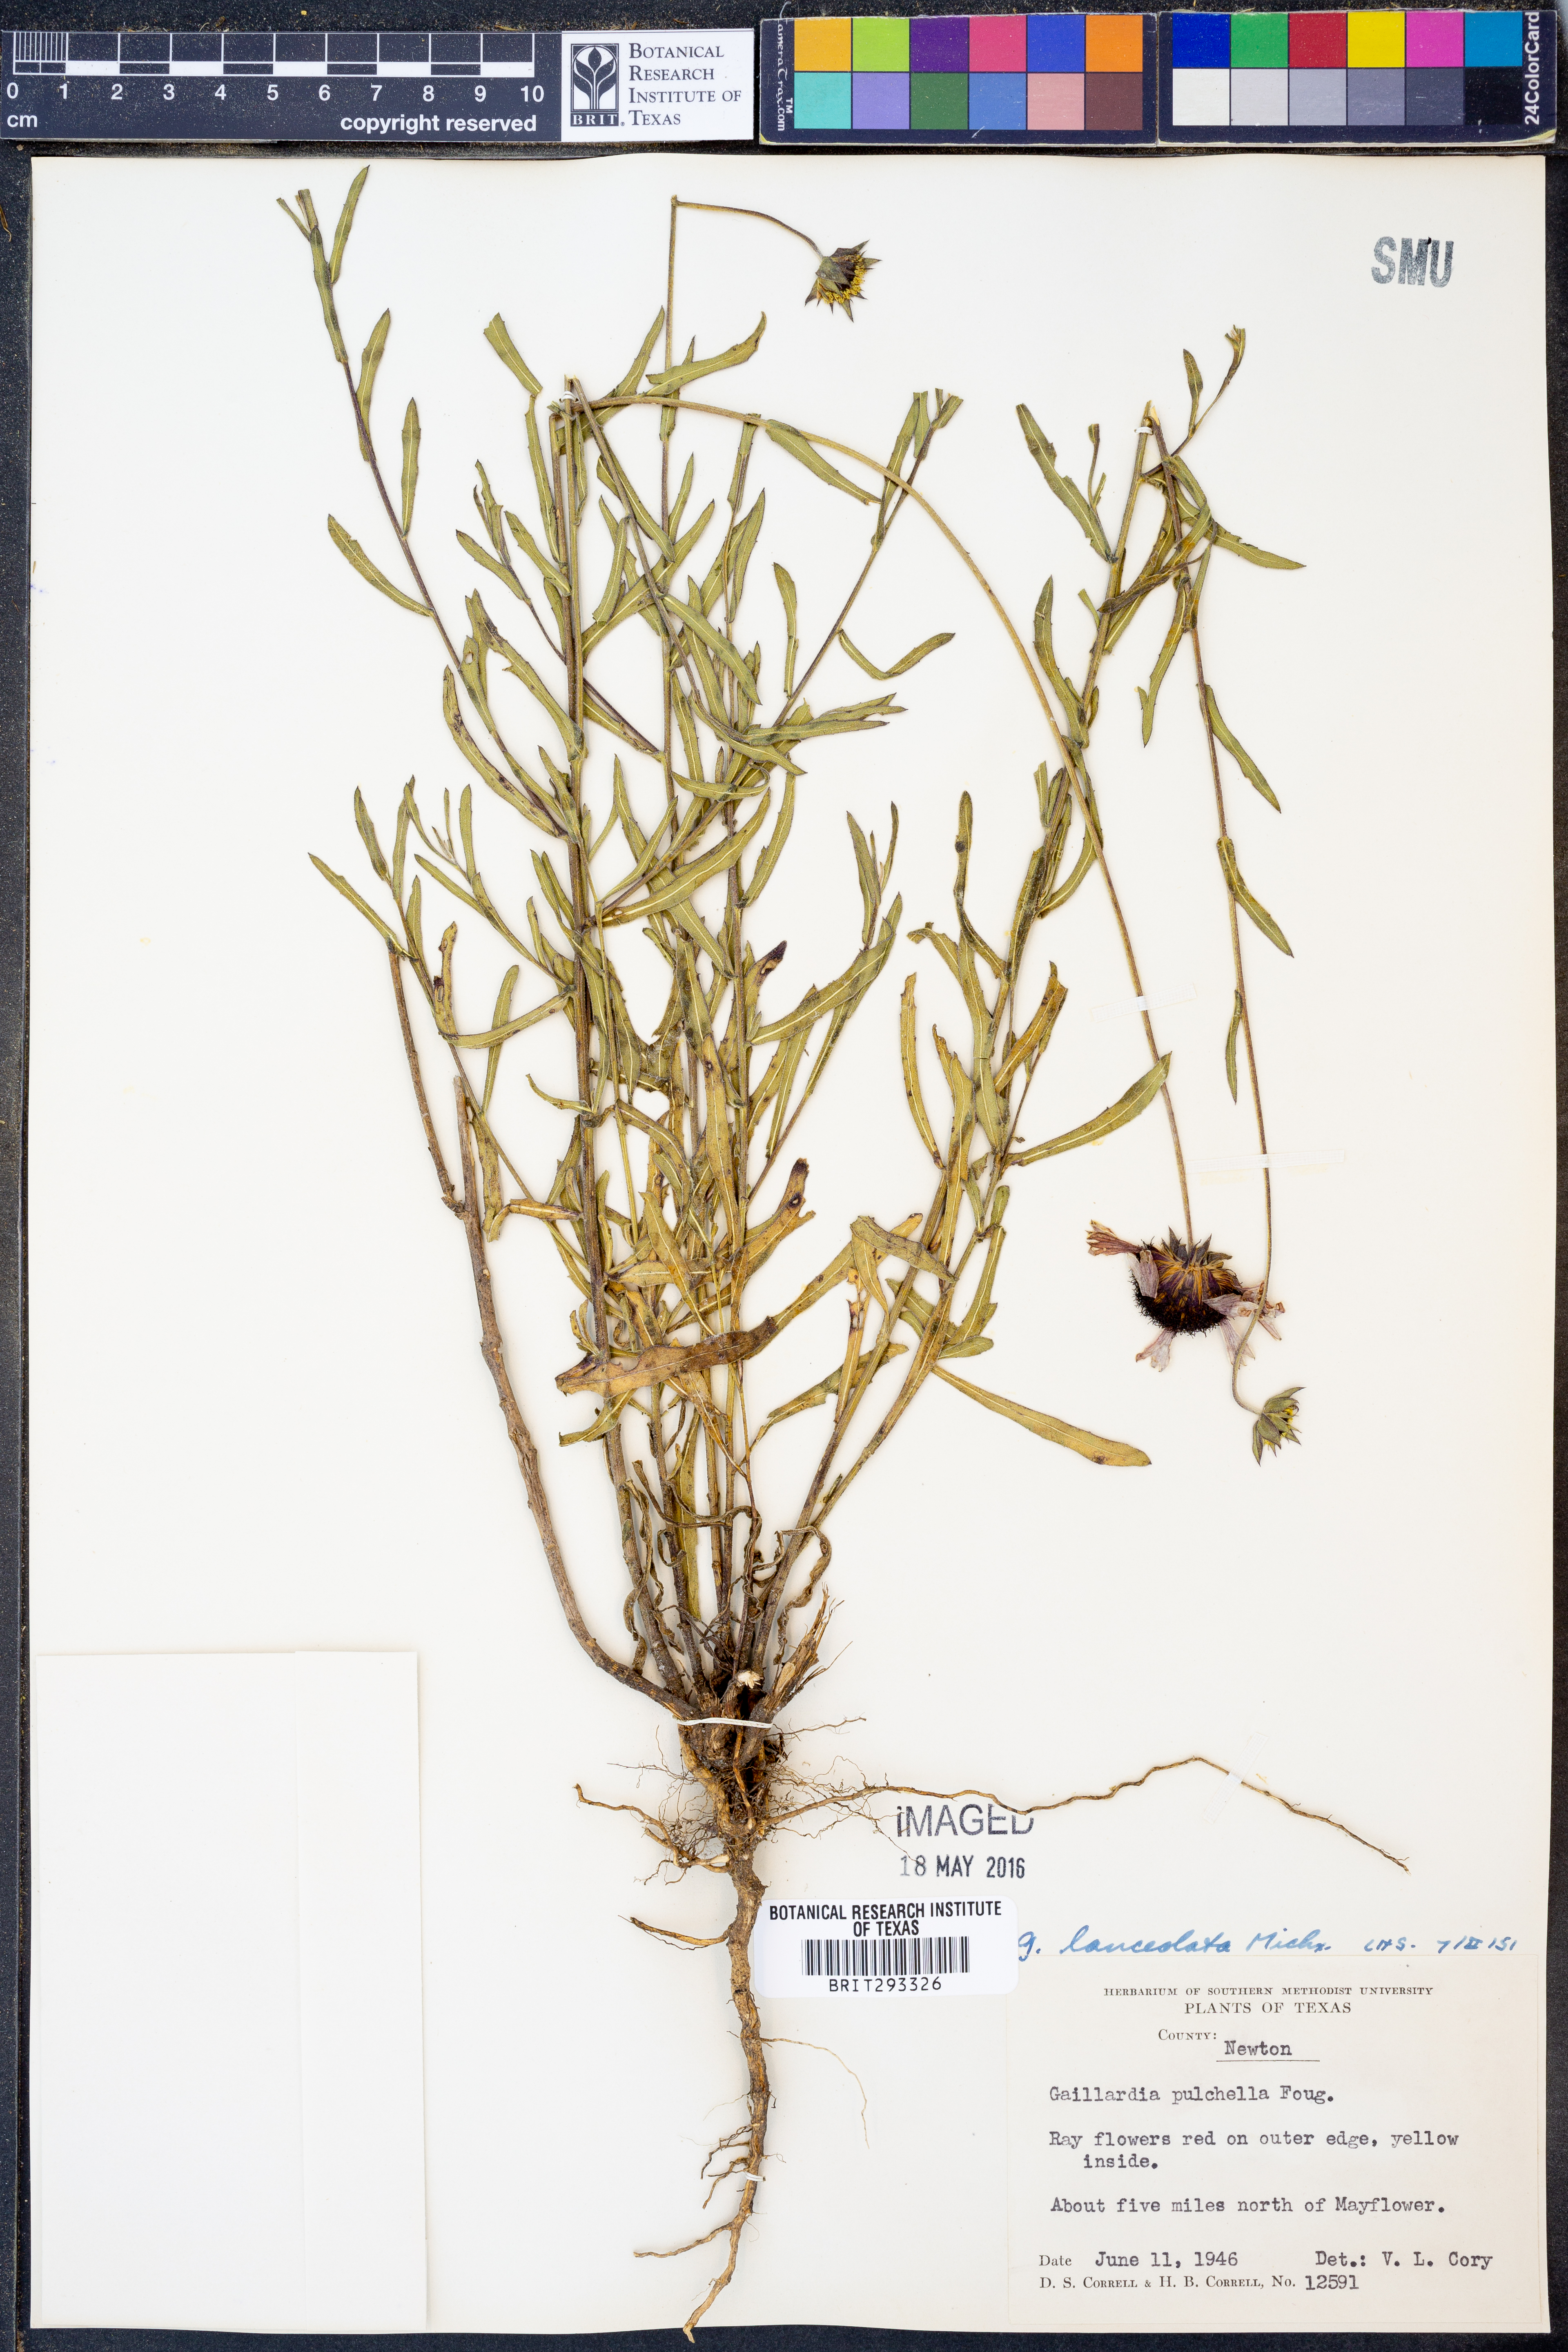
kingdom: Plantae
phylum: Tracheophyta
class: Magnoliopsida
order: Asterales
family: Asteraceae
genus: Gaillardia
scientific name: Gaillardia aestivalis
